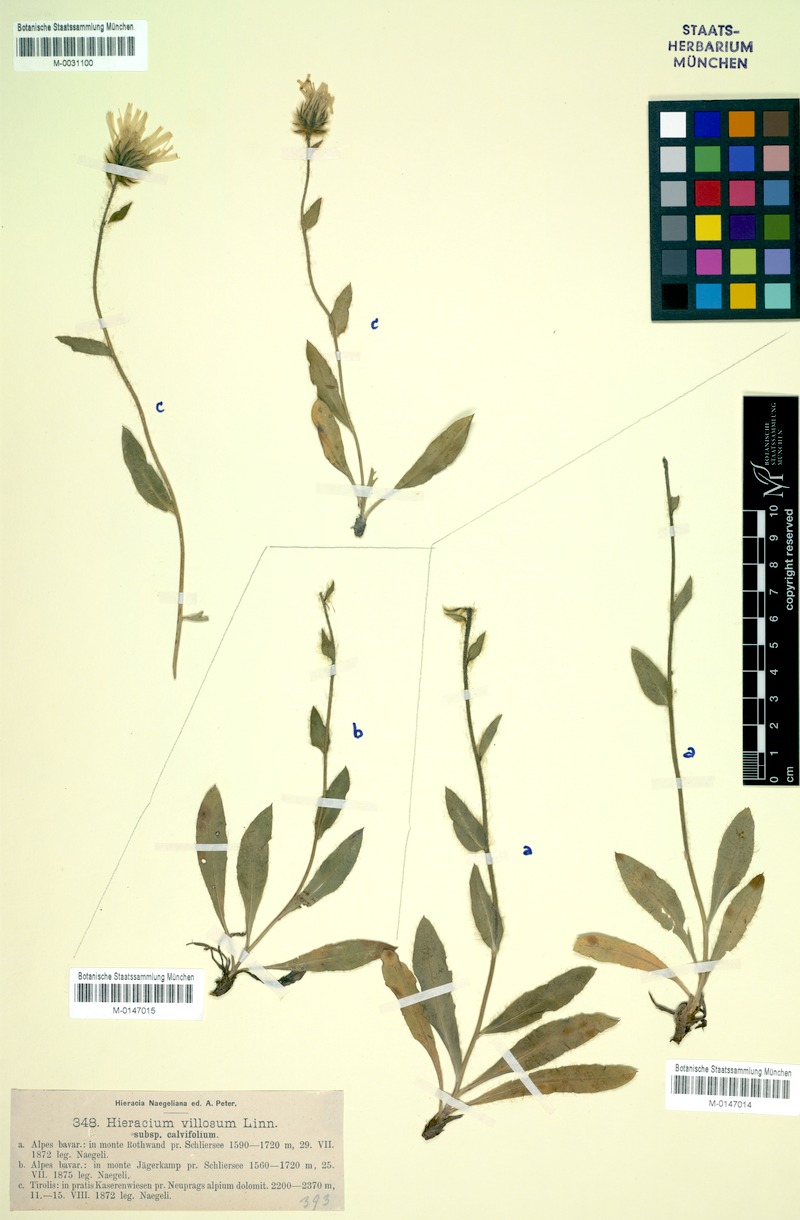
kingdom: Plantae
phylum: Tracheophyta
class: Magnoliopsida
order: Asterales
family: Asteraceae
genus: Hieracium
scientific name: Hieracium villosum
